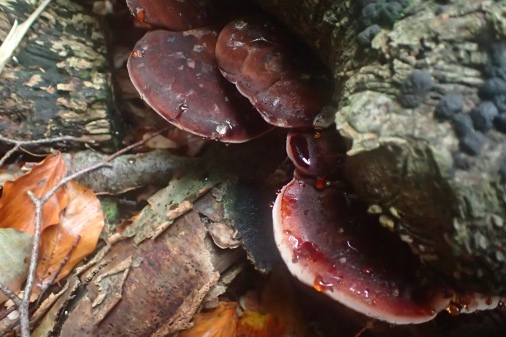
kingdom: Fungi
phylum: Basidiomycota
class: Agaricomycetes
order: Polyporales
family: Ischnodermataceae
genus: Ischnoderma
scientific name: Ischnoderma resinosum
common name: løv-tjæreporesvamp
